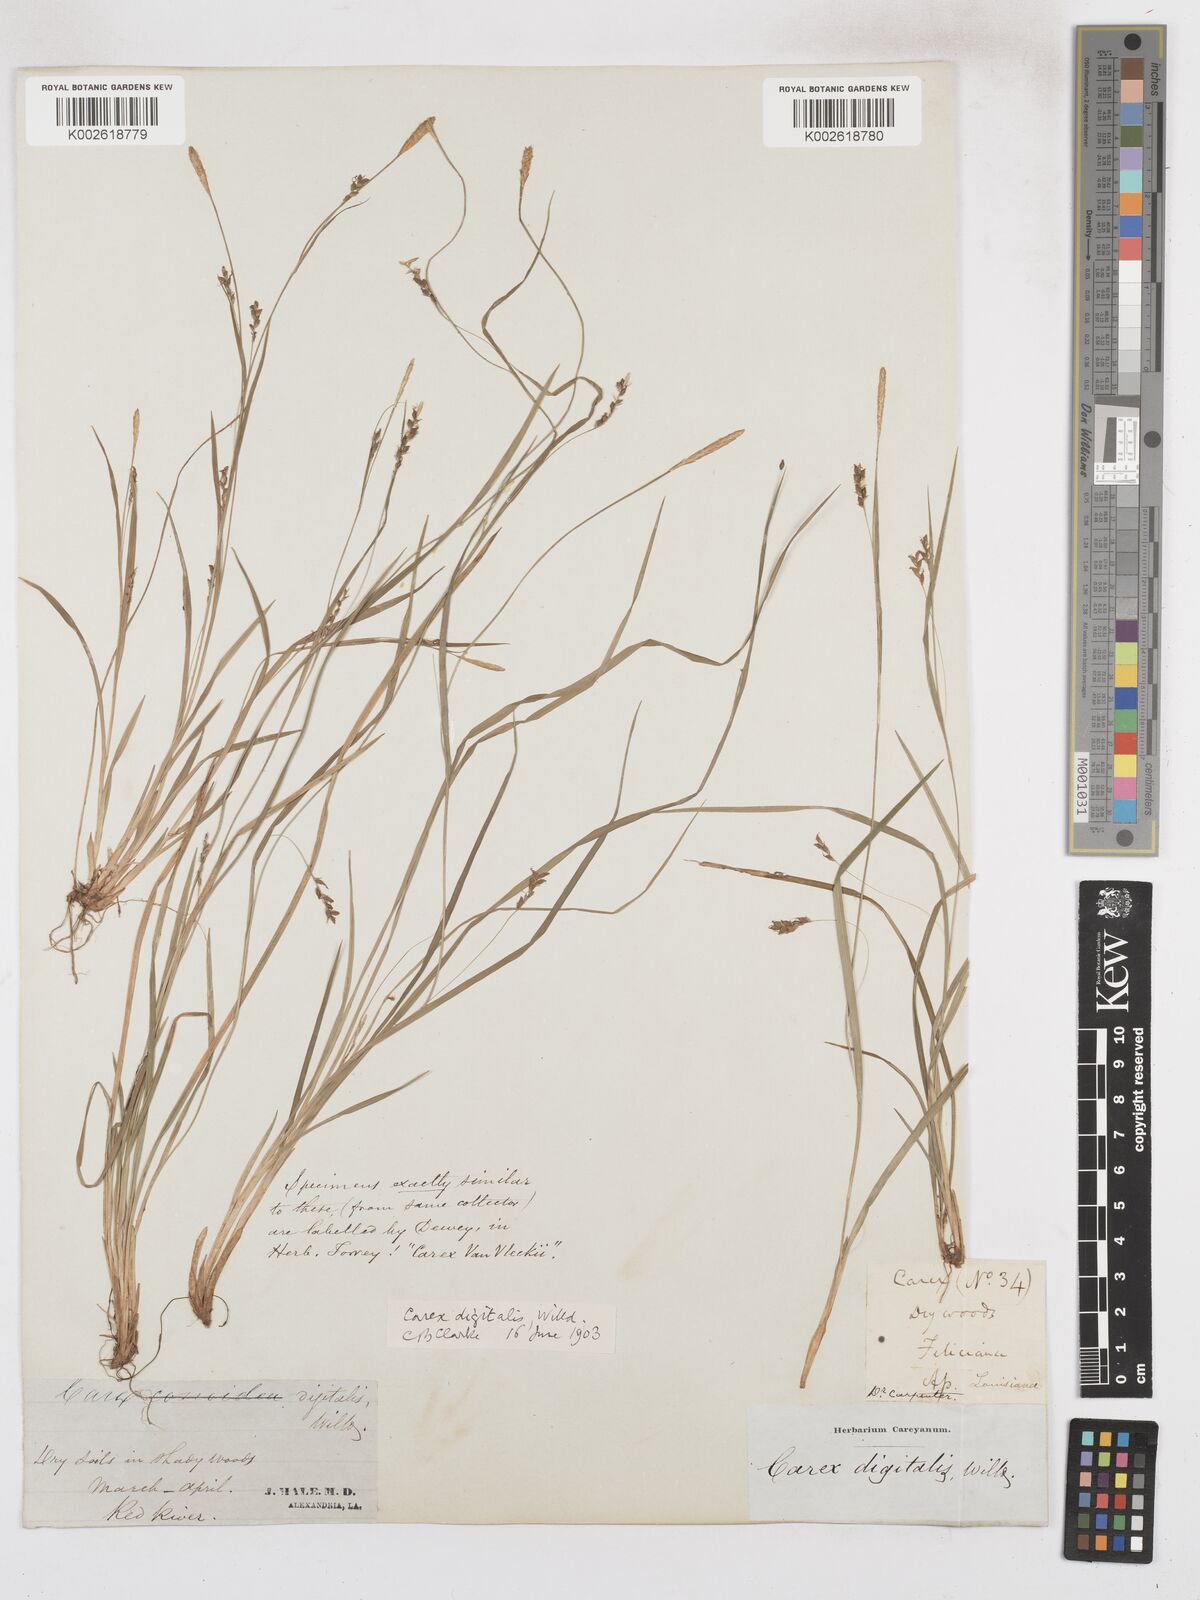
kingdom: Plantae
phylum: Tracheophyta
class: Liliopsida
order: Poales
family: Cyperaceae
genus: Carex
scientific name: Carex digitalis
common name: Slender wood sedge
